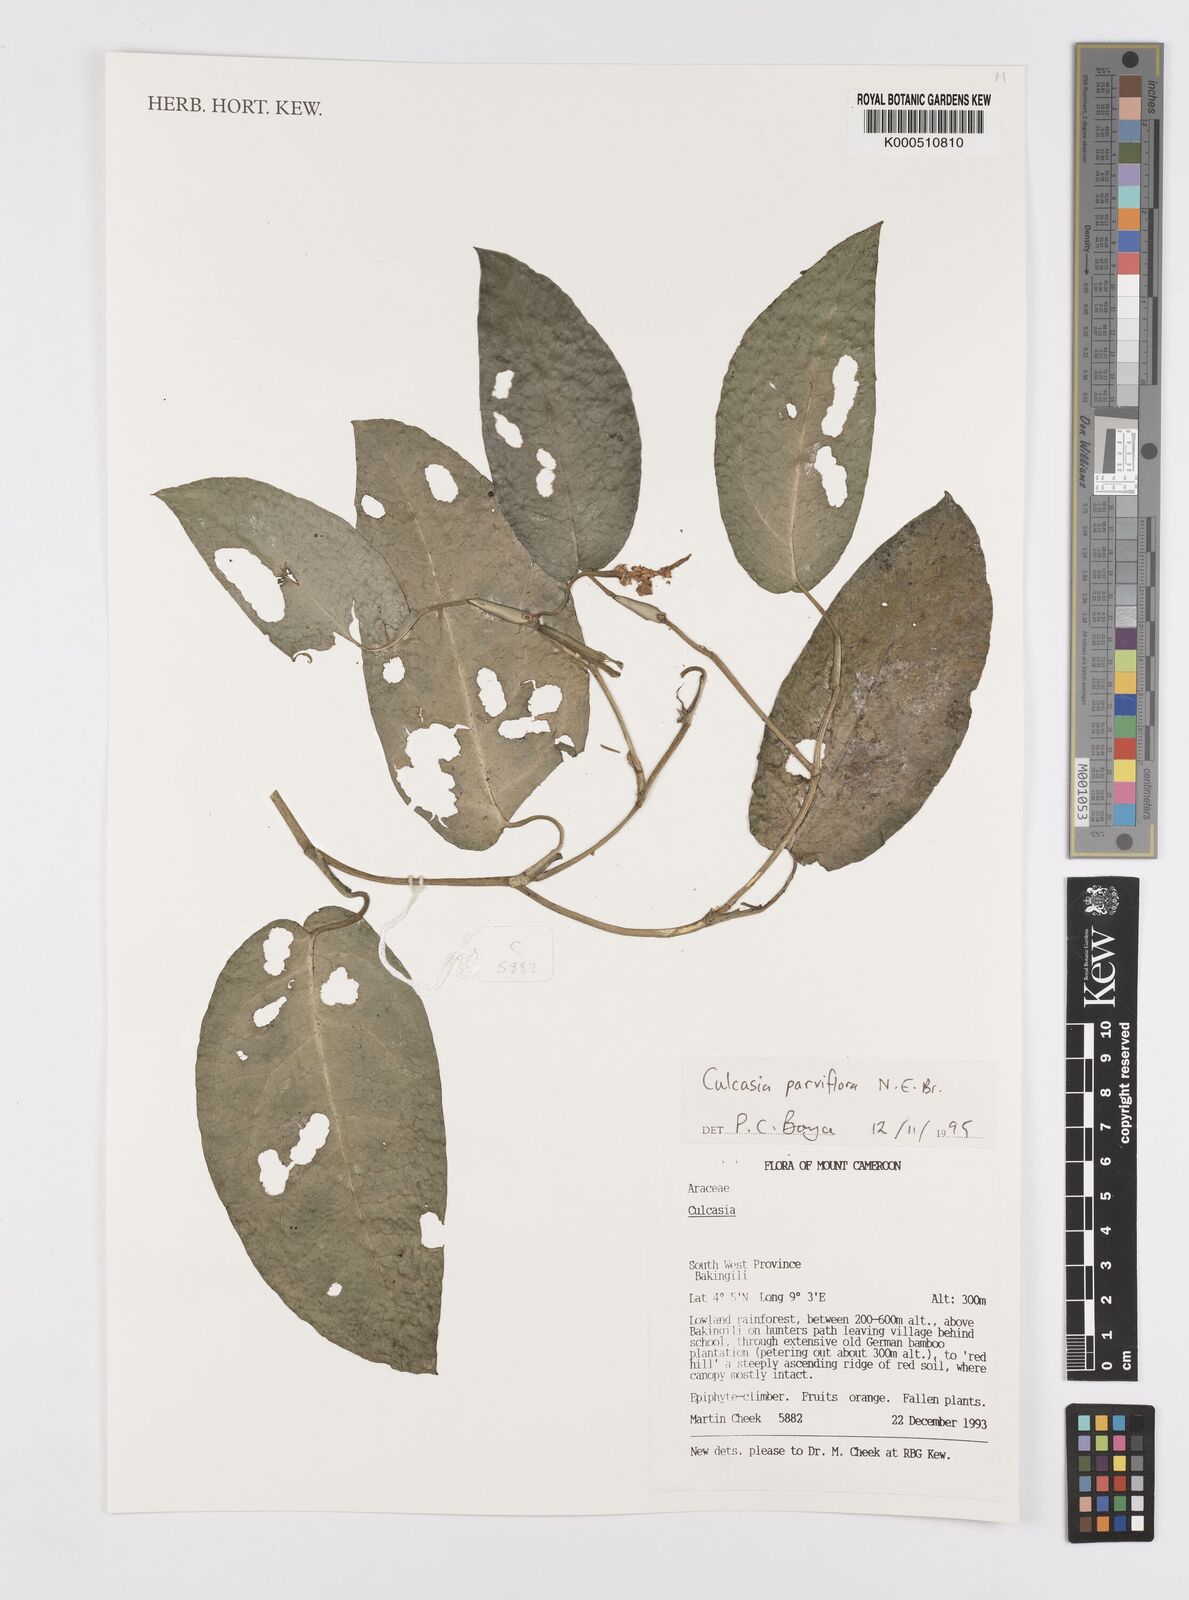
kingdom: Plantae
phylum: Tracheophyta
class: Liliopsida
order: Alismatales
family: Araceae
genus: Culcasia
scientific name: Culcasia parviflora
